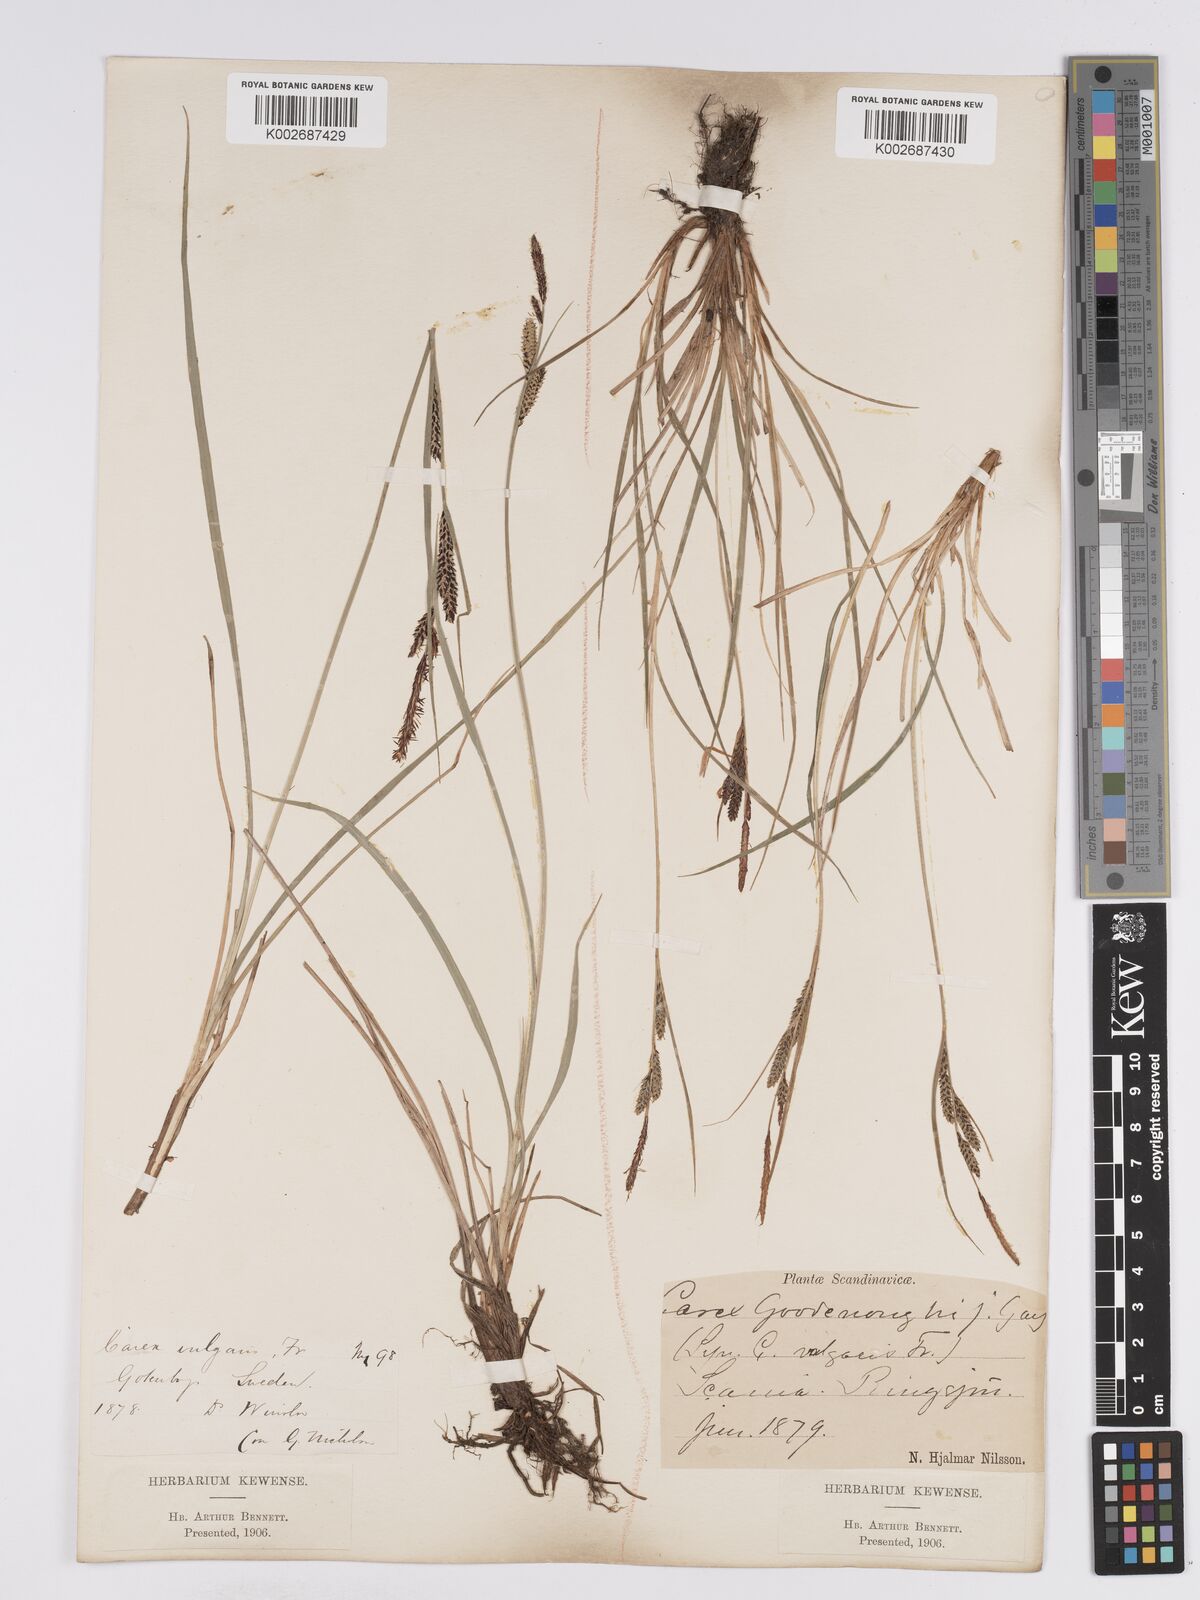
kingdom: Plantae
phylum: Tracheophyta
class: Liliopsida
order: Poales
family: Cyperaceae
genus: Carex
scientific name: Carex nigra
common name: Common sedge
